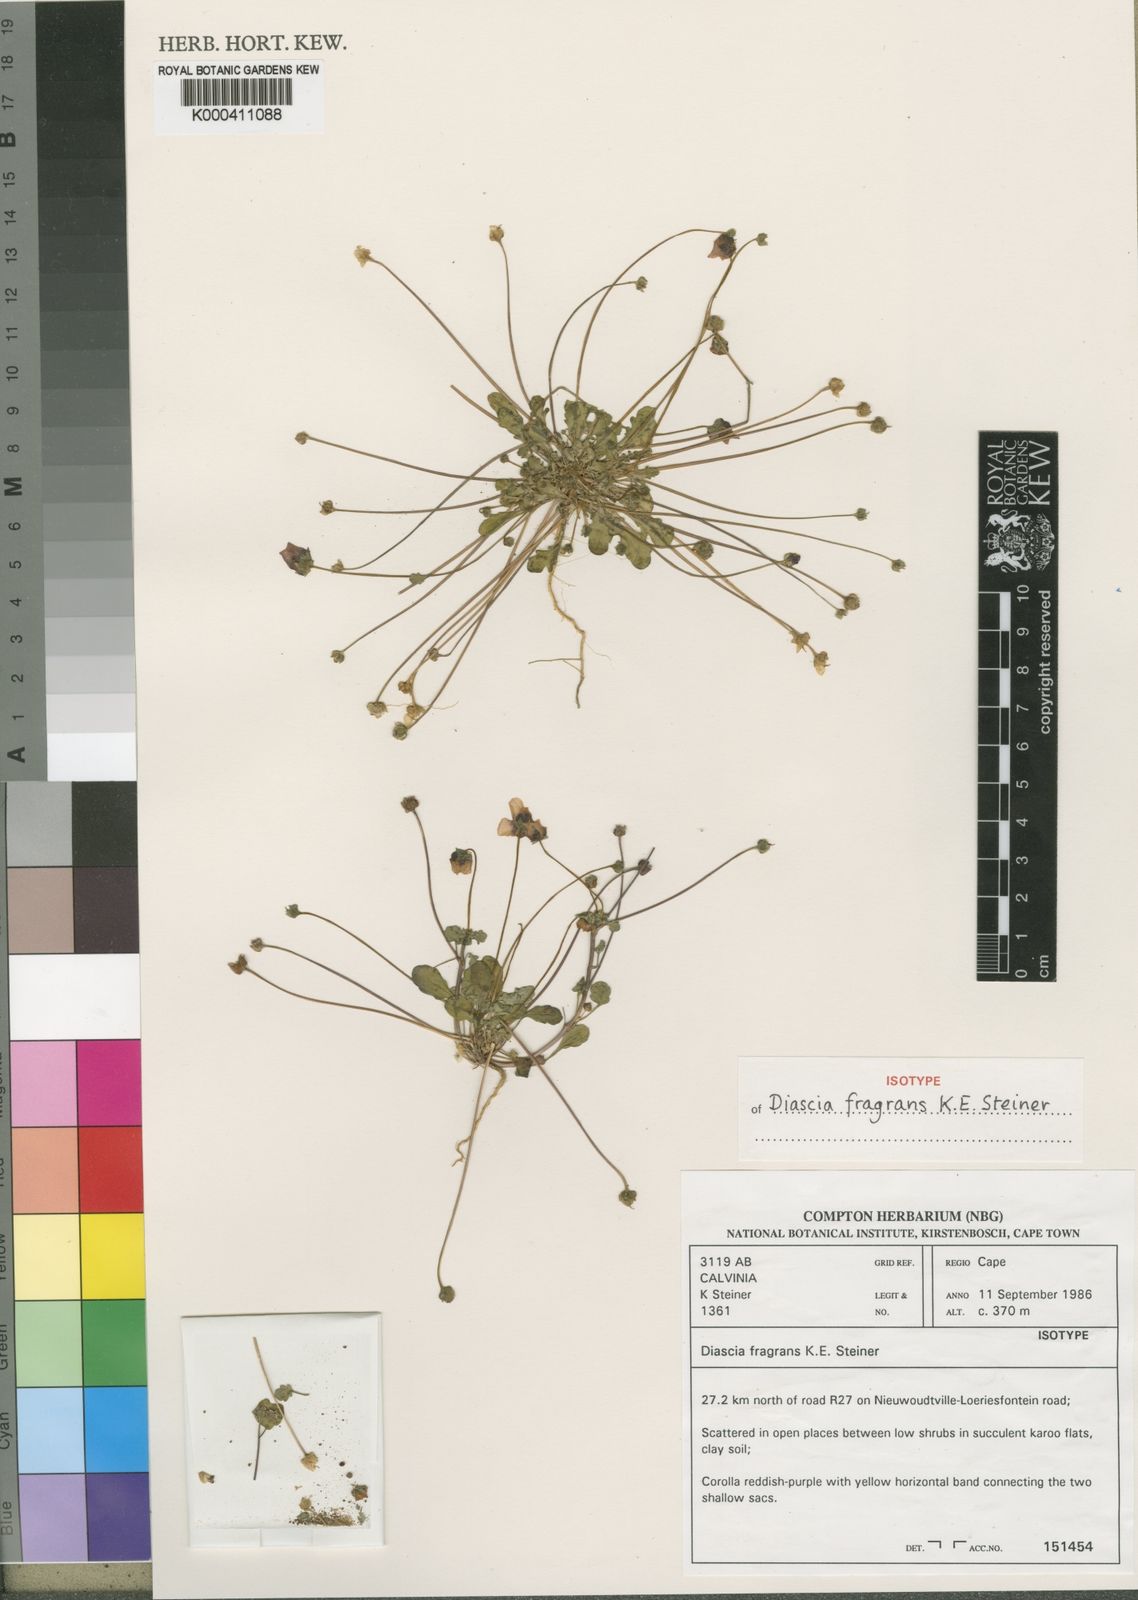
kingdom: Plantae
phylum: Tracheophyta
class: Magnoliopsida
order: Lamiales
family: Scrophulariaceae
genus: Diascia
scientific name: Diascia fragrans
